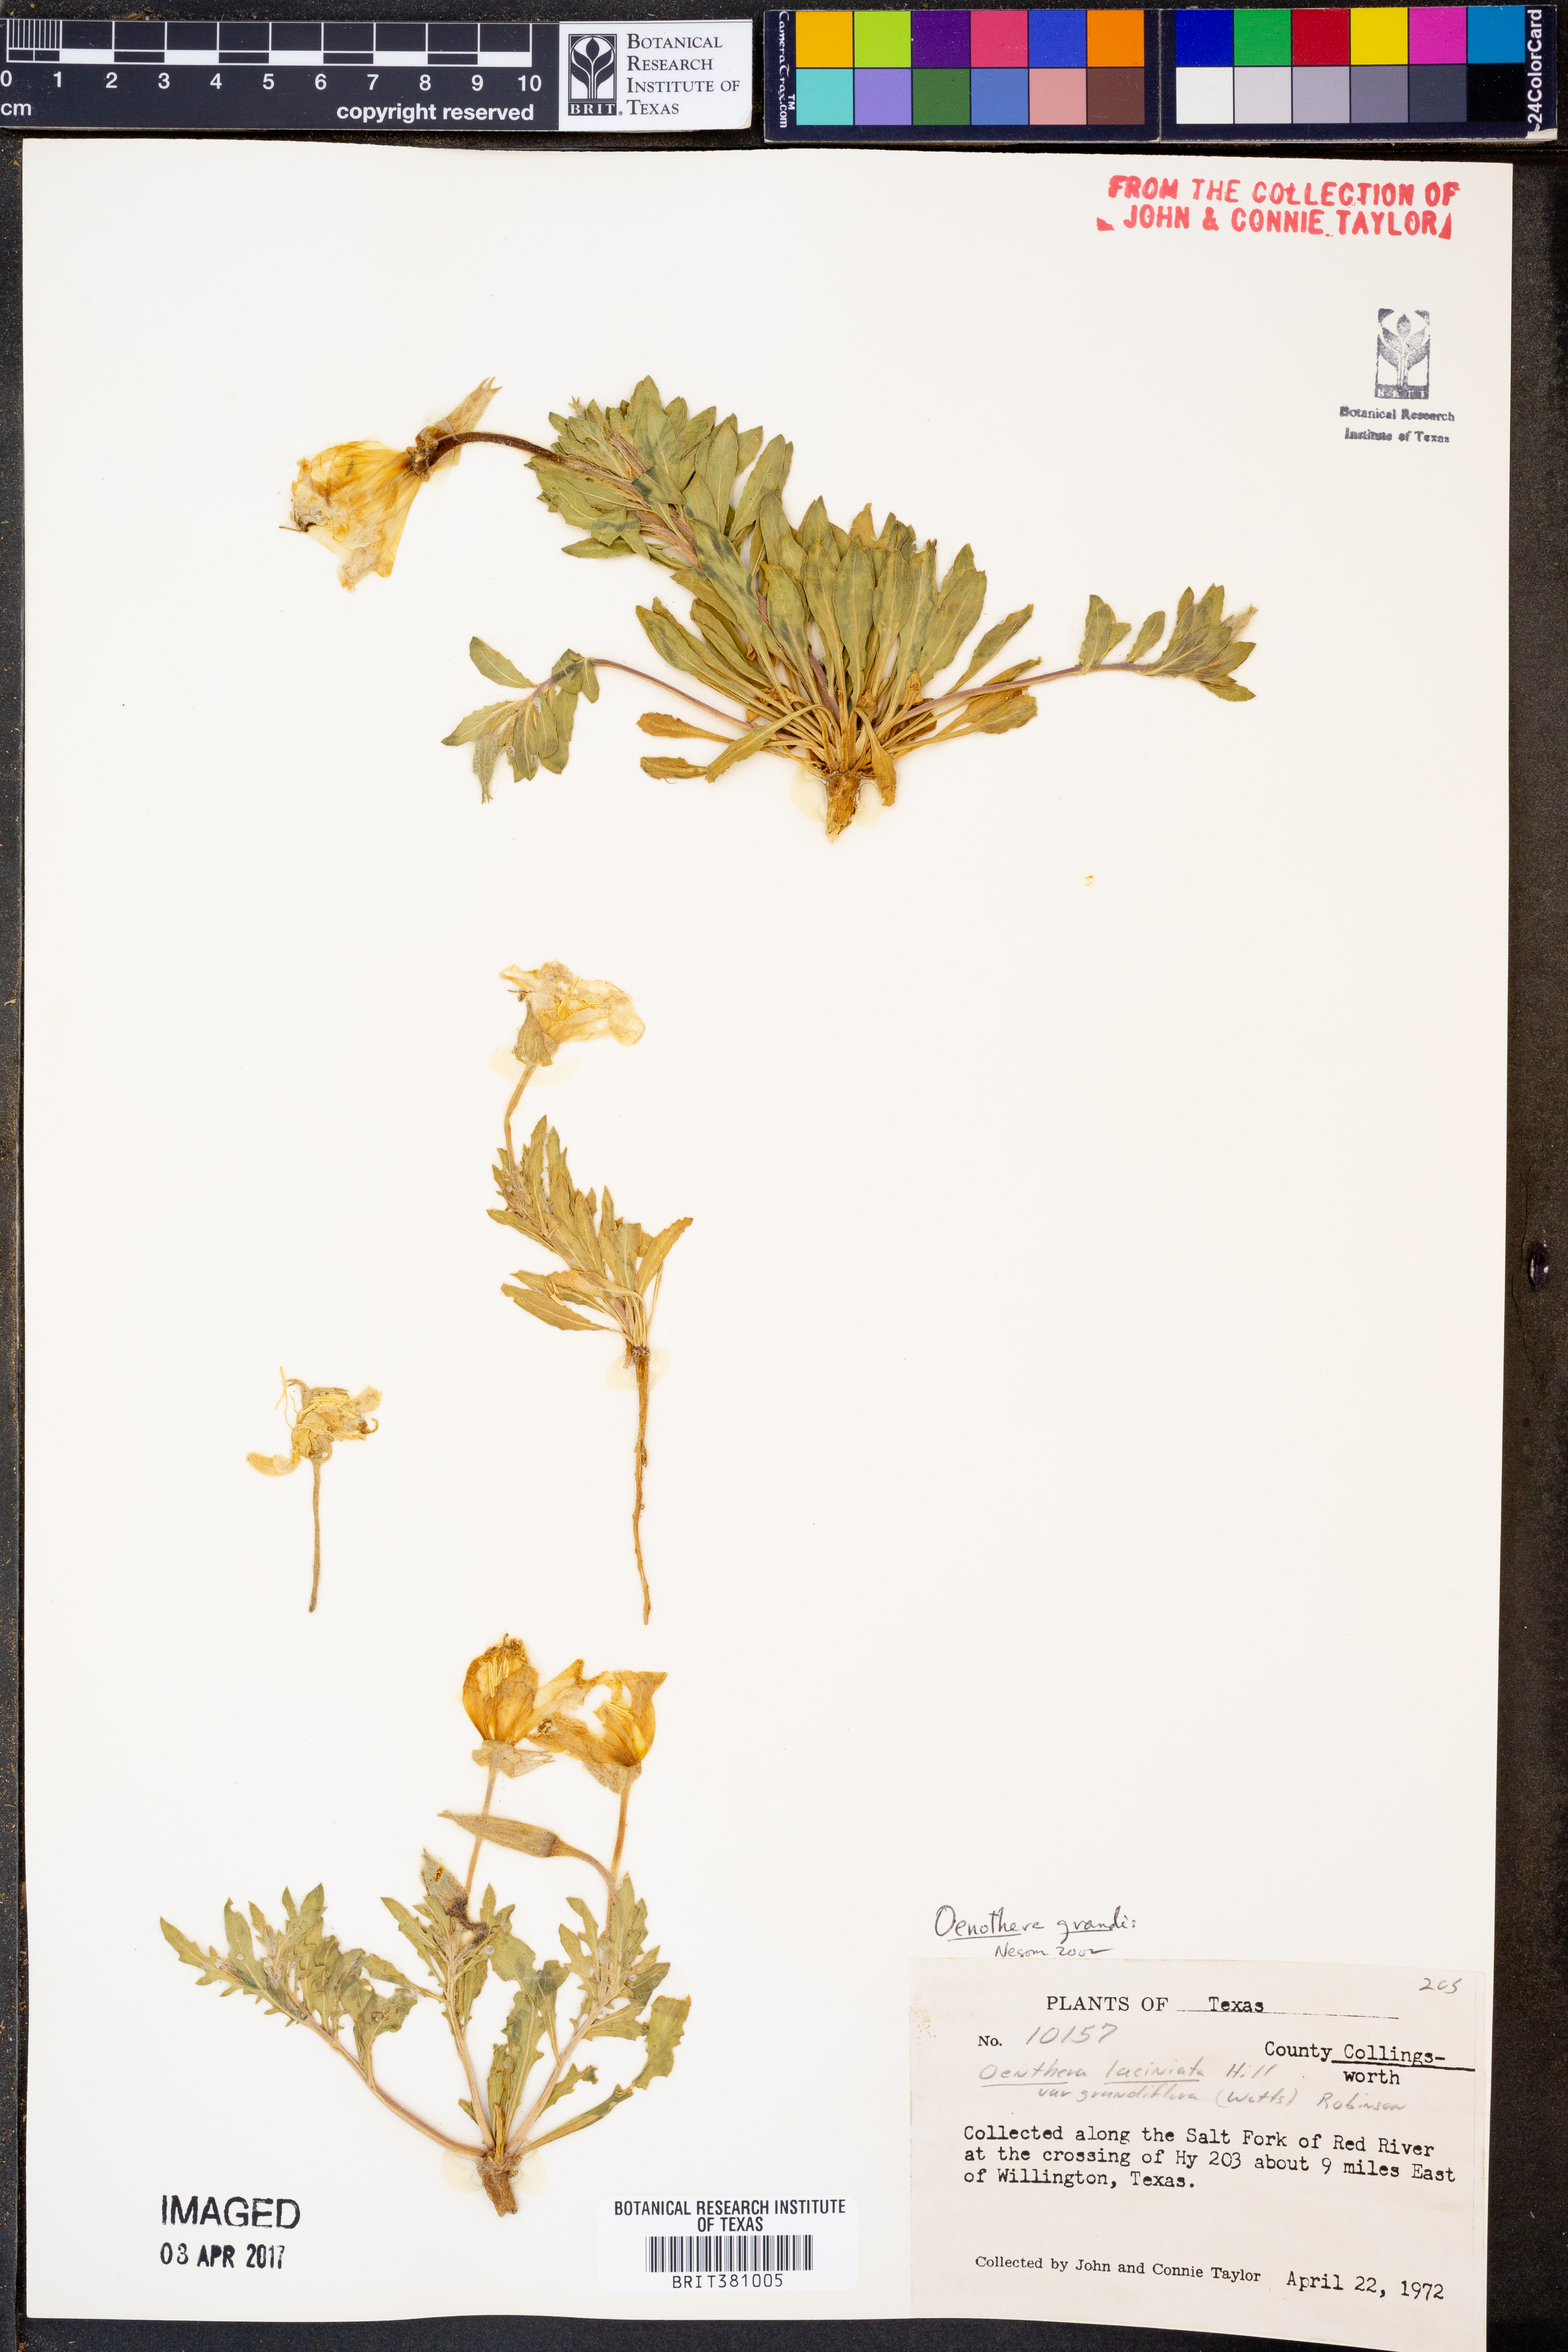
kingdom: Plantae
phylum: Tracheophyta
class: Magnoliopsida
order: Myrtales
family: Onagraceae
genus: Oenothera
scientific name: Oenothera grandis
